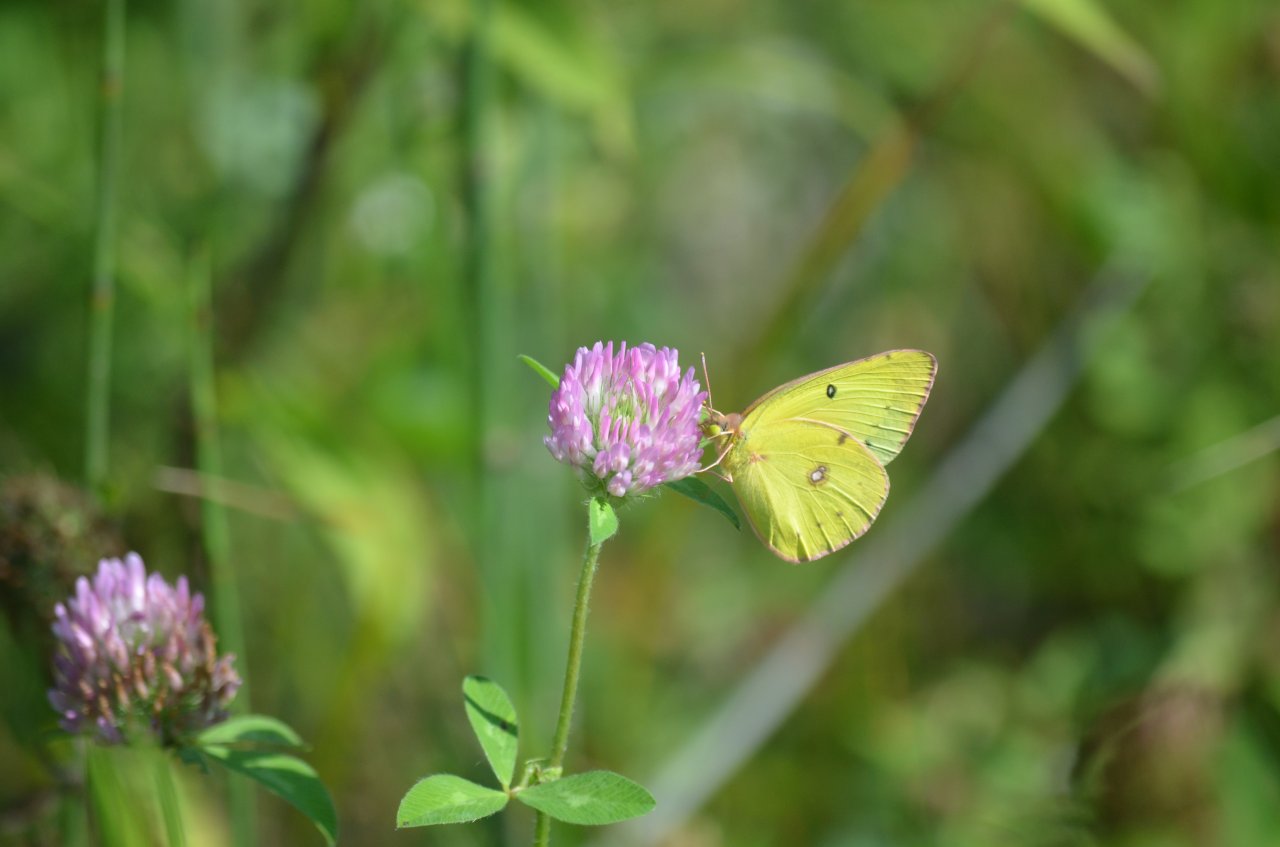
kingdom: Animalia
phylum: Arthropoda
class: Insecta
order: Lepidoptera
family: Pieridae
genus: Colias
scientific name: Colias philodice
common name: Clouded Sulphur
